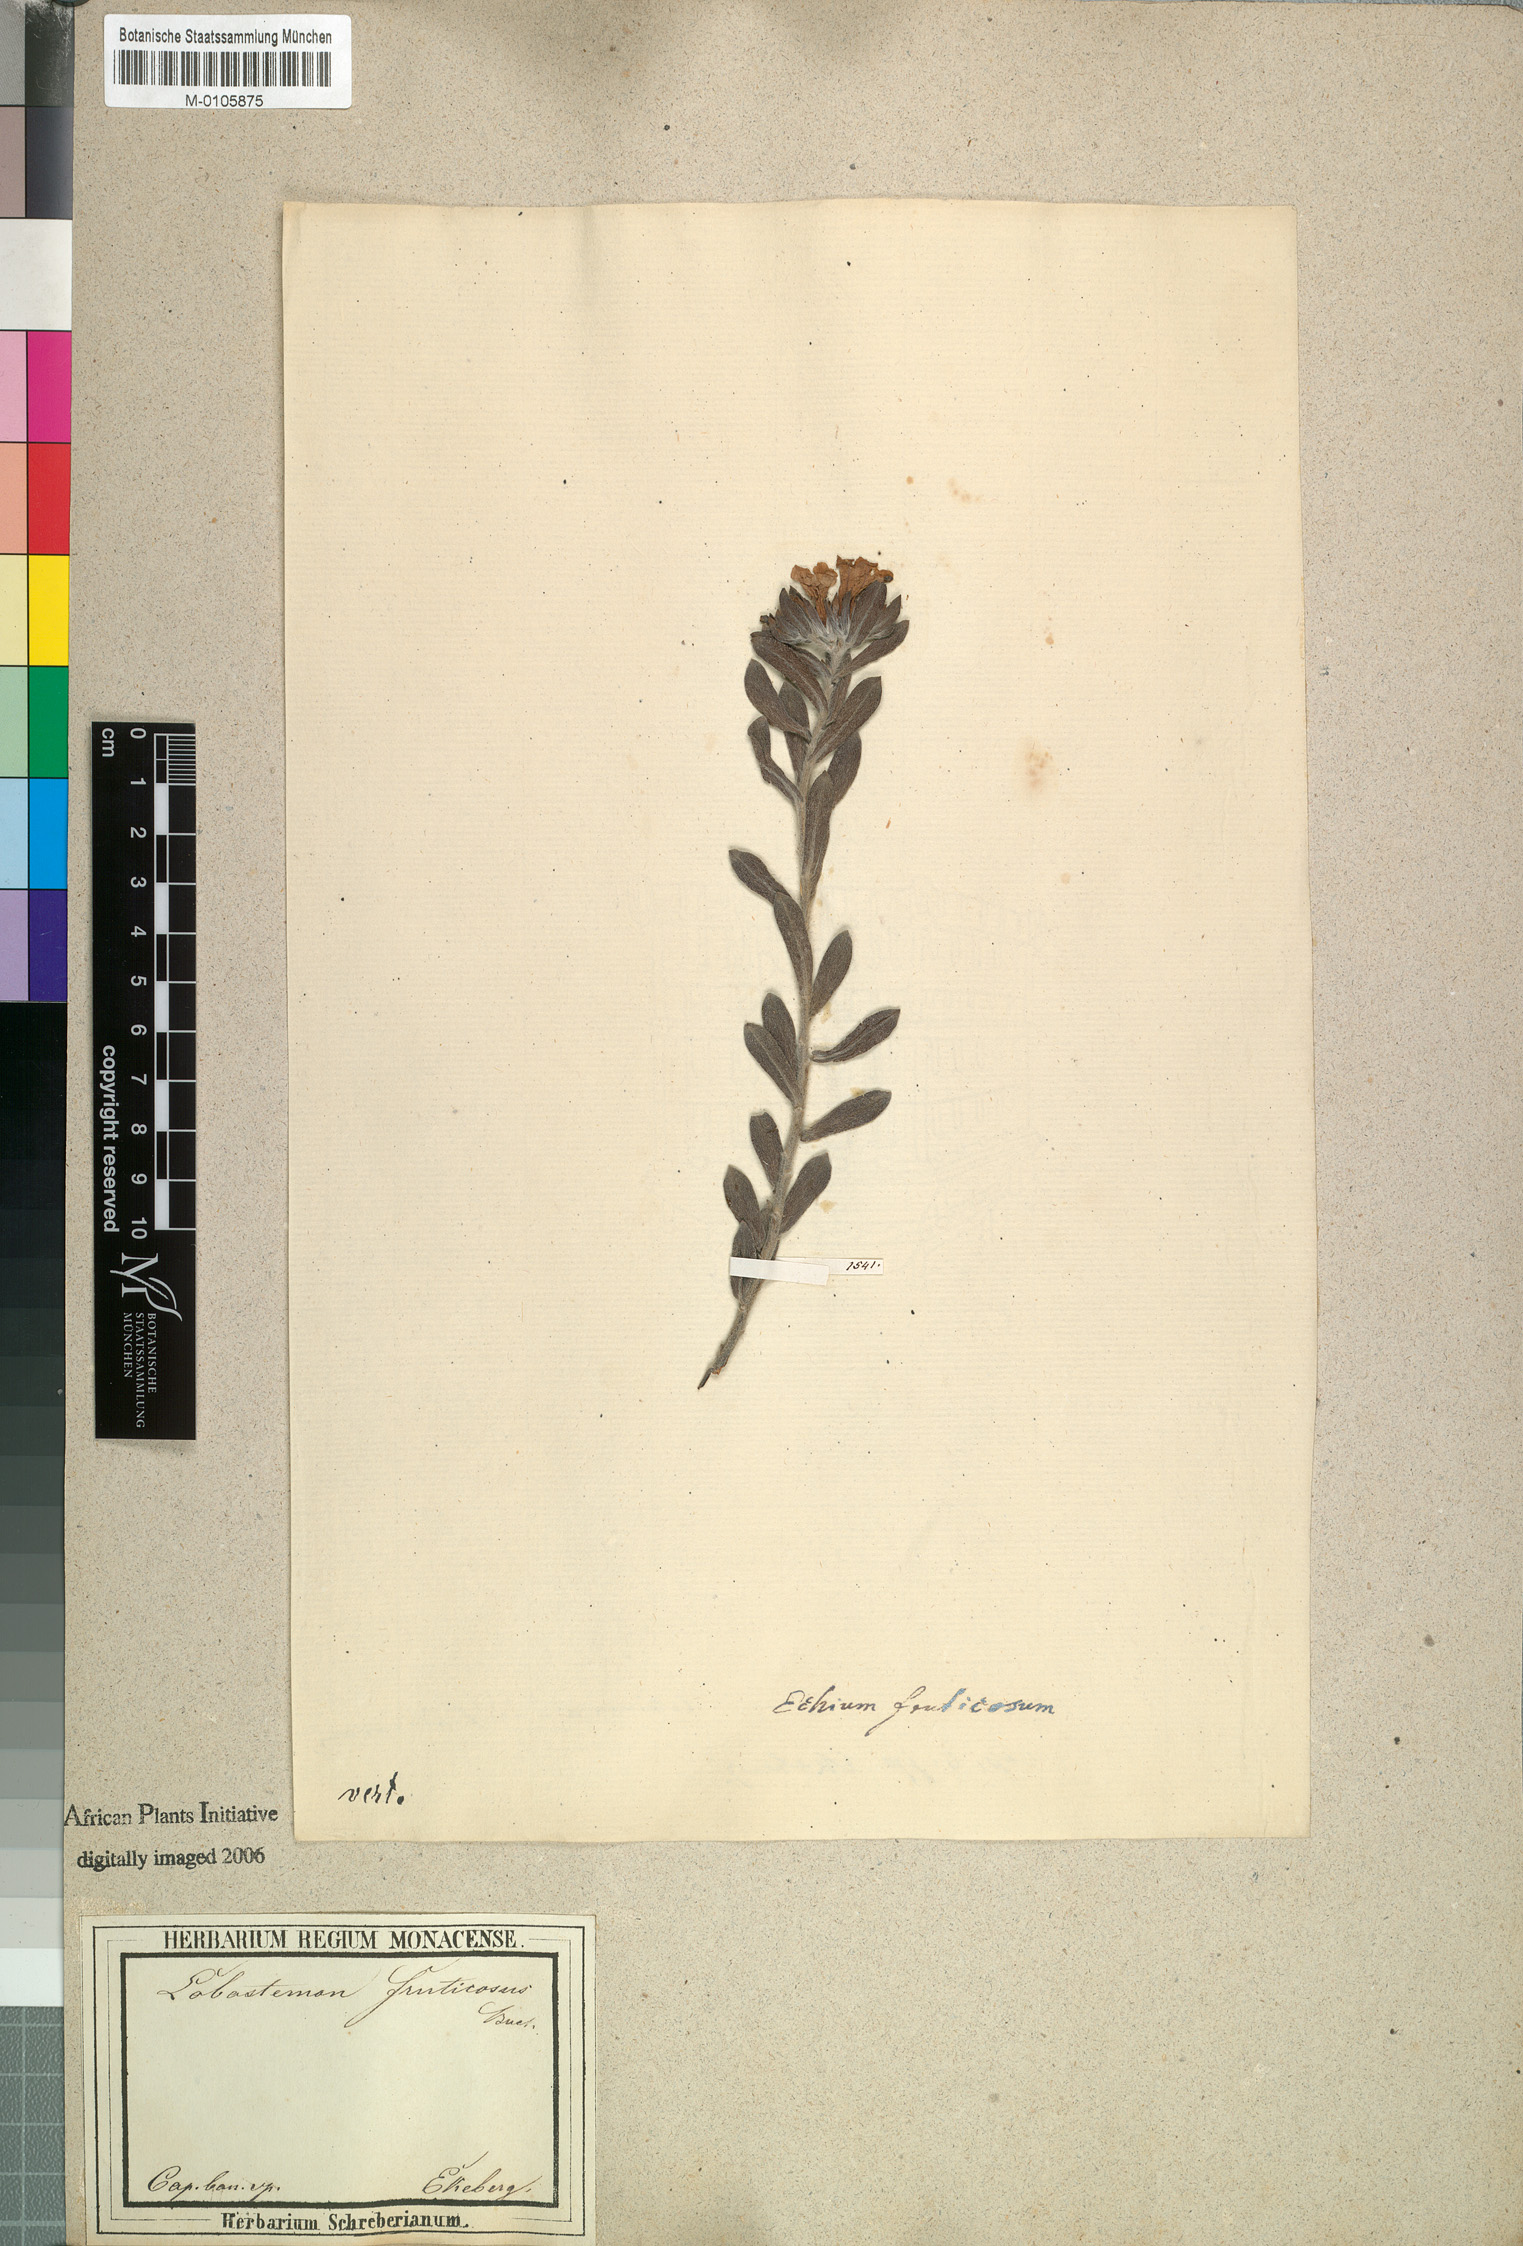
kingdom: Plantae
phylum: Tracheophyta
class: Magnoliopsida
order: Boraginales
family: Boraginaceae
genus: Lobostemon
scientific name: Lobostemon fruticosus
